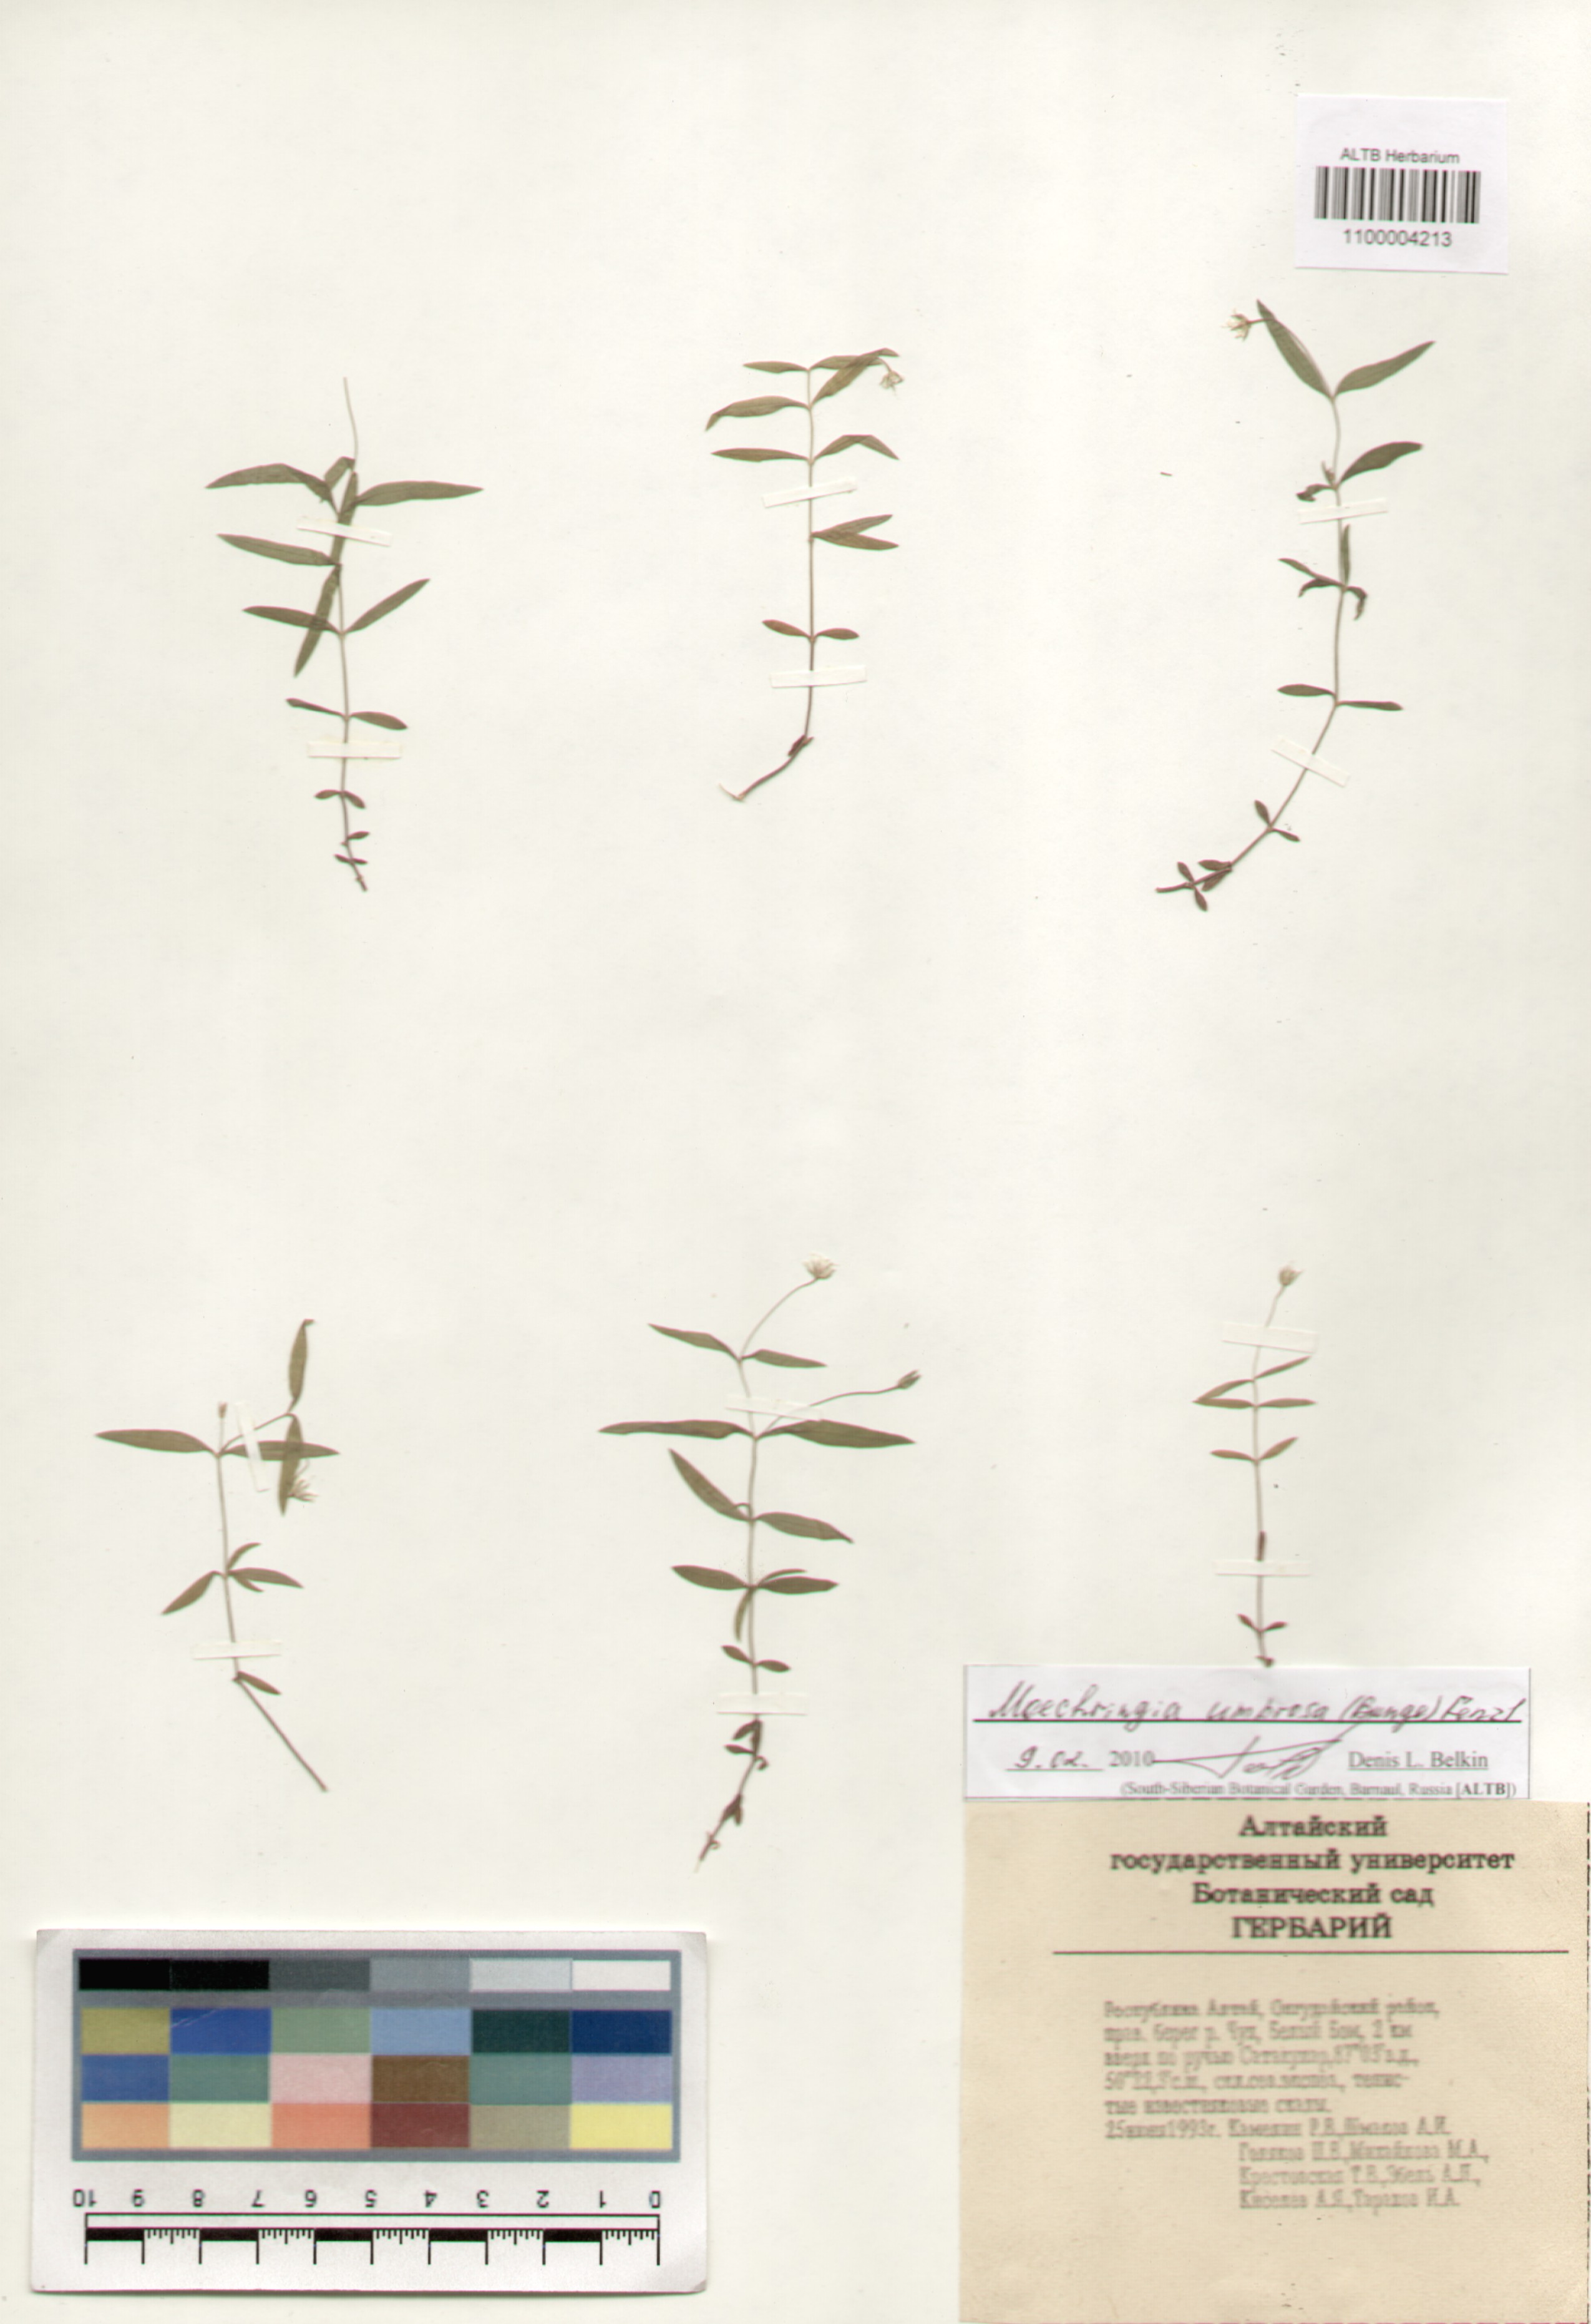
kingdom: Plantae
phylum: Tracheophyta
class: Magnoliopsida
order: Caryophyllales
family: Caryophyllaceae
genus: Moehringia
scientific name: Moehringia umbrosa
